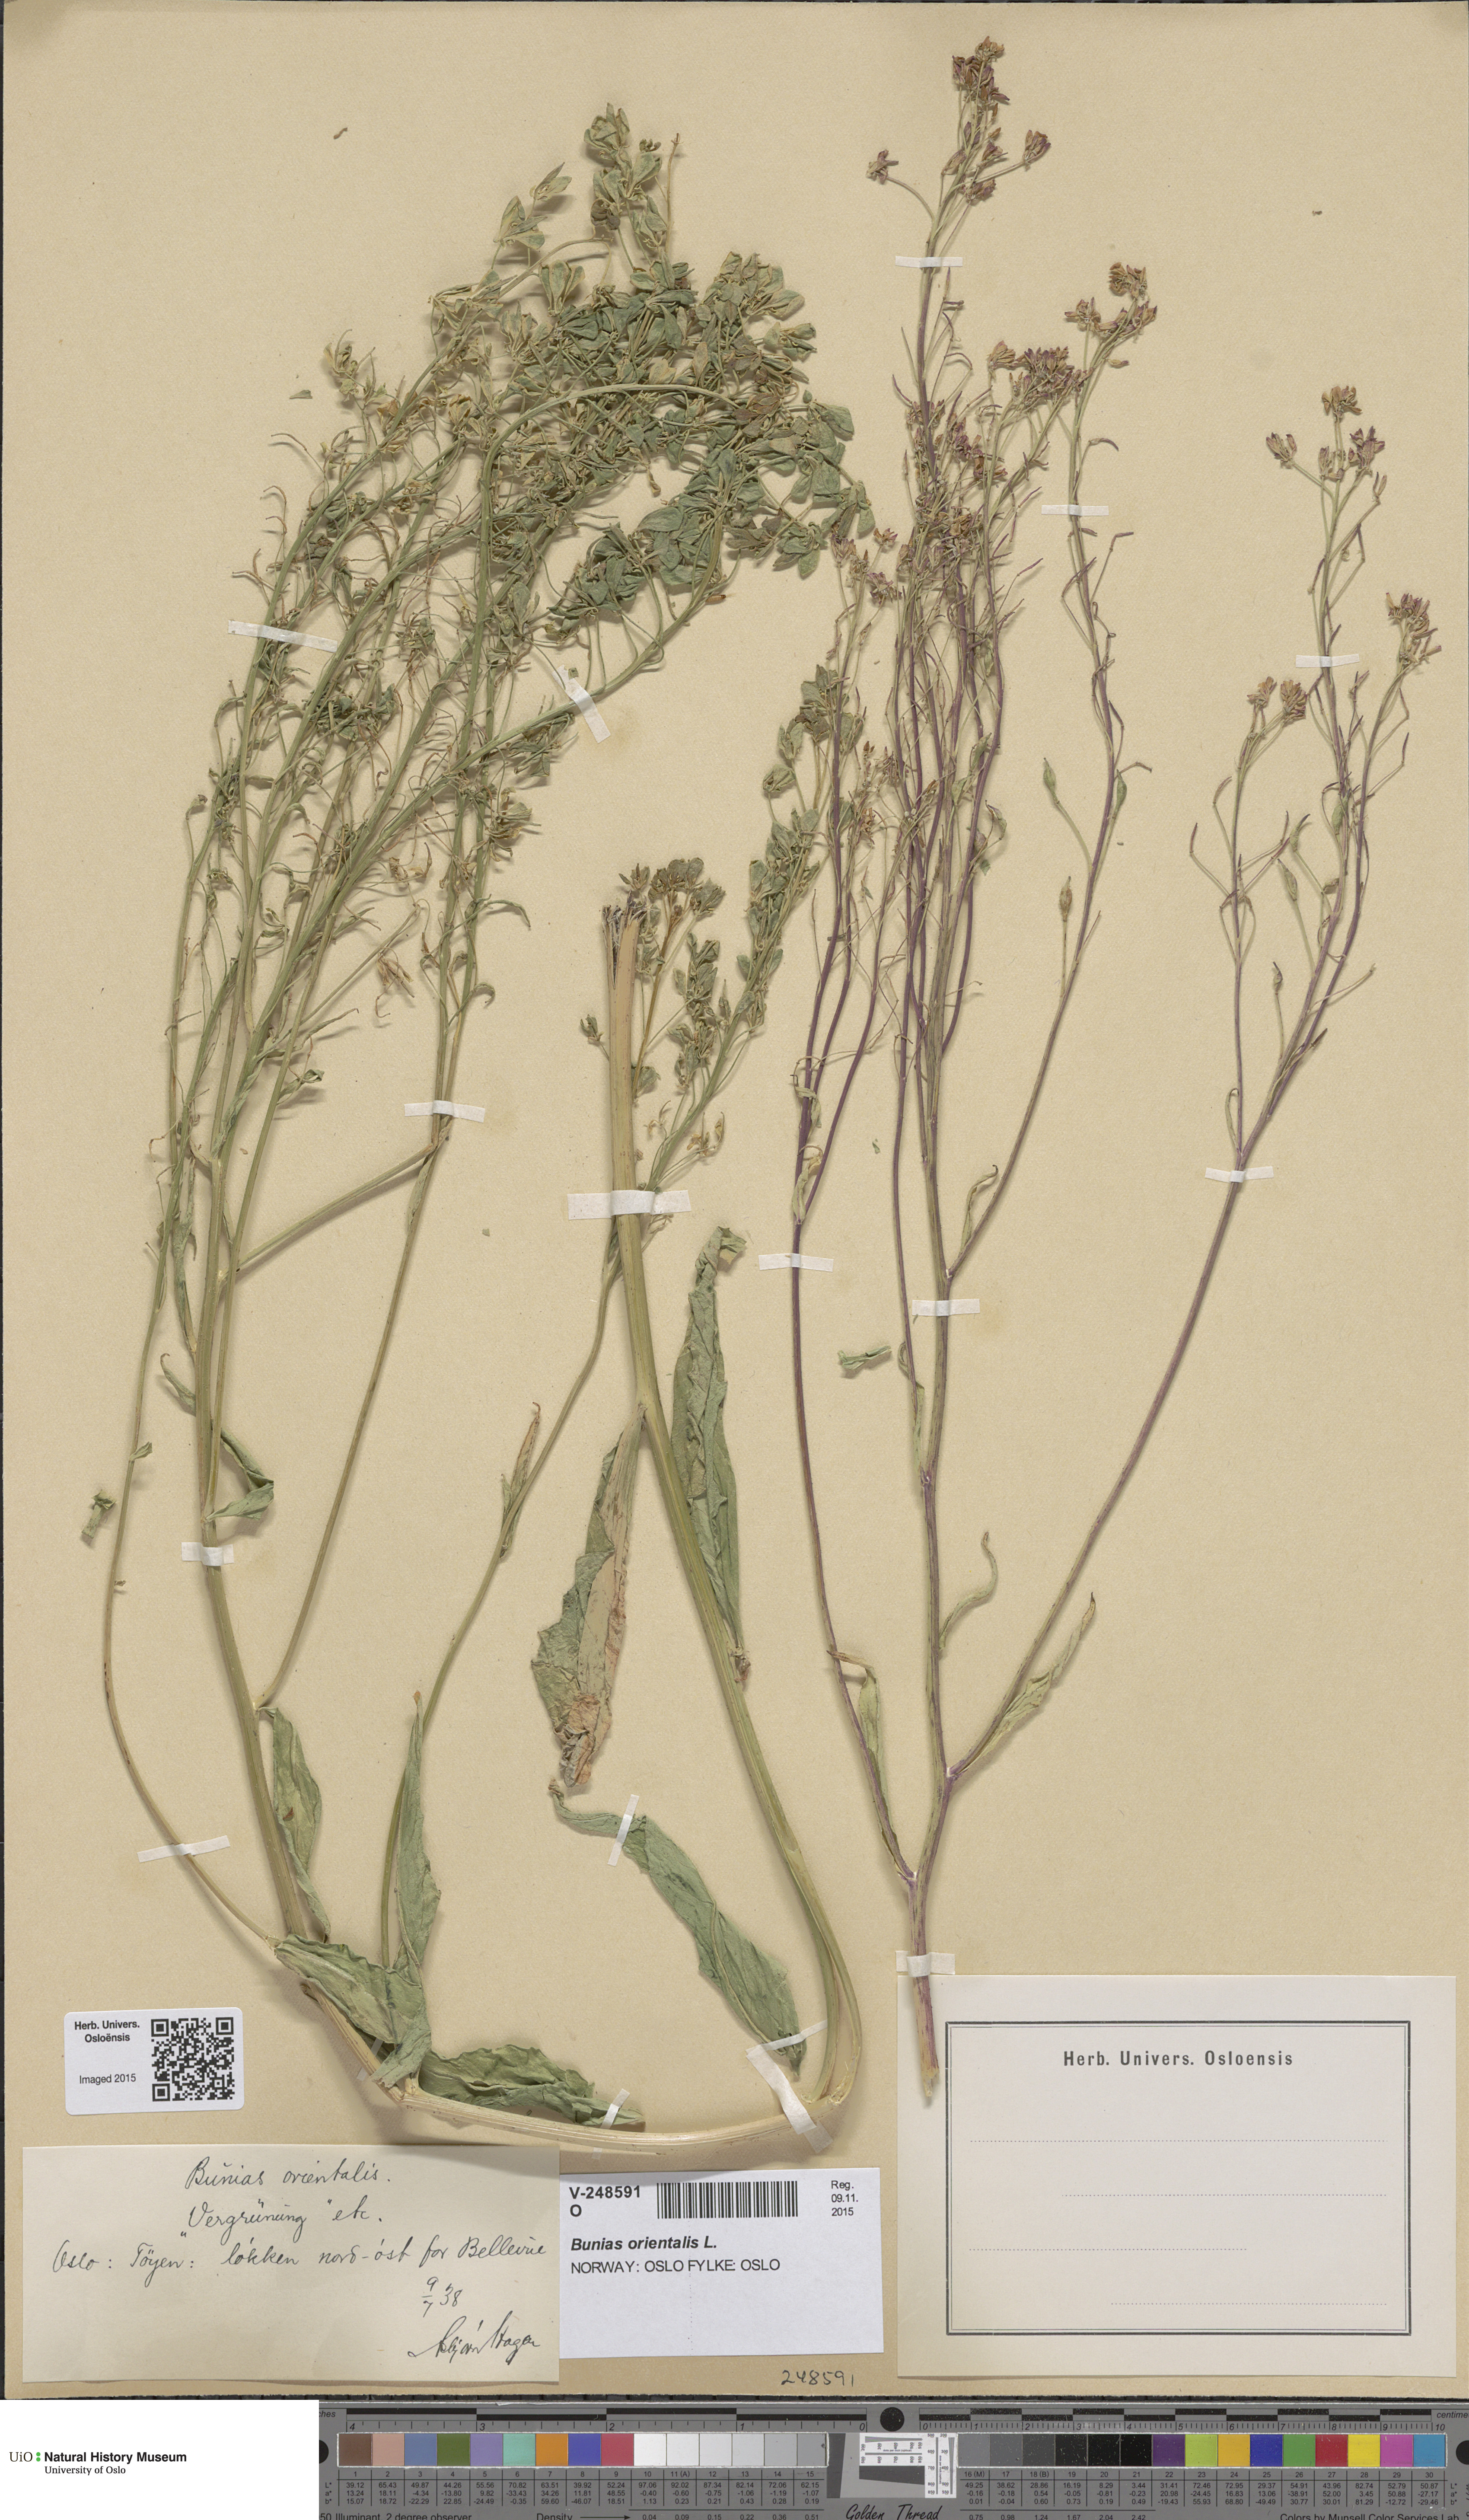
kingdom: Plantae
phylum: Tracheophyta
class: Magnoliopsida
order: Brassicales
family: Brassicaceae
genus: Bunias
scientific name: Bunias orientalis
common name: Warty-cabbage
